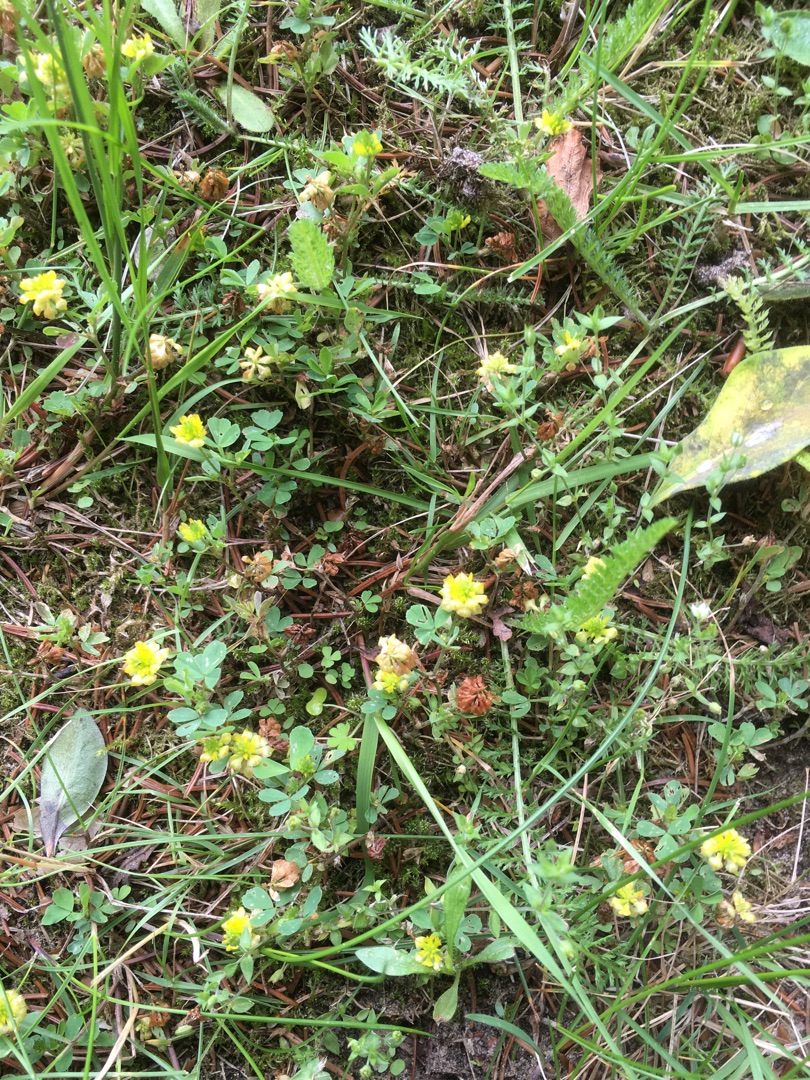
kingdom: Plantae
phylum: Tracheophyta
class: Magnoliopsida
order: Fabales
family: Fabaceae
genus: Trifolium
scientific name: Trifolium campestre
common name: Gul kløver
